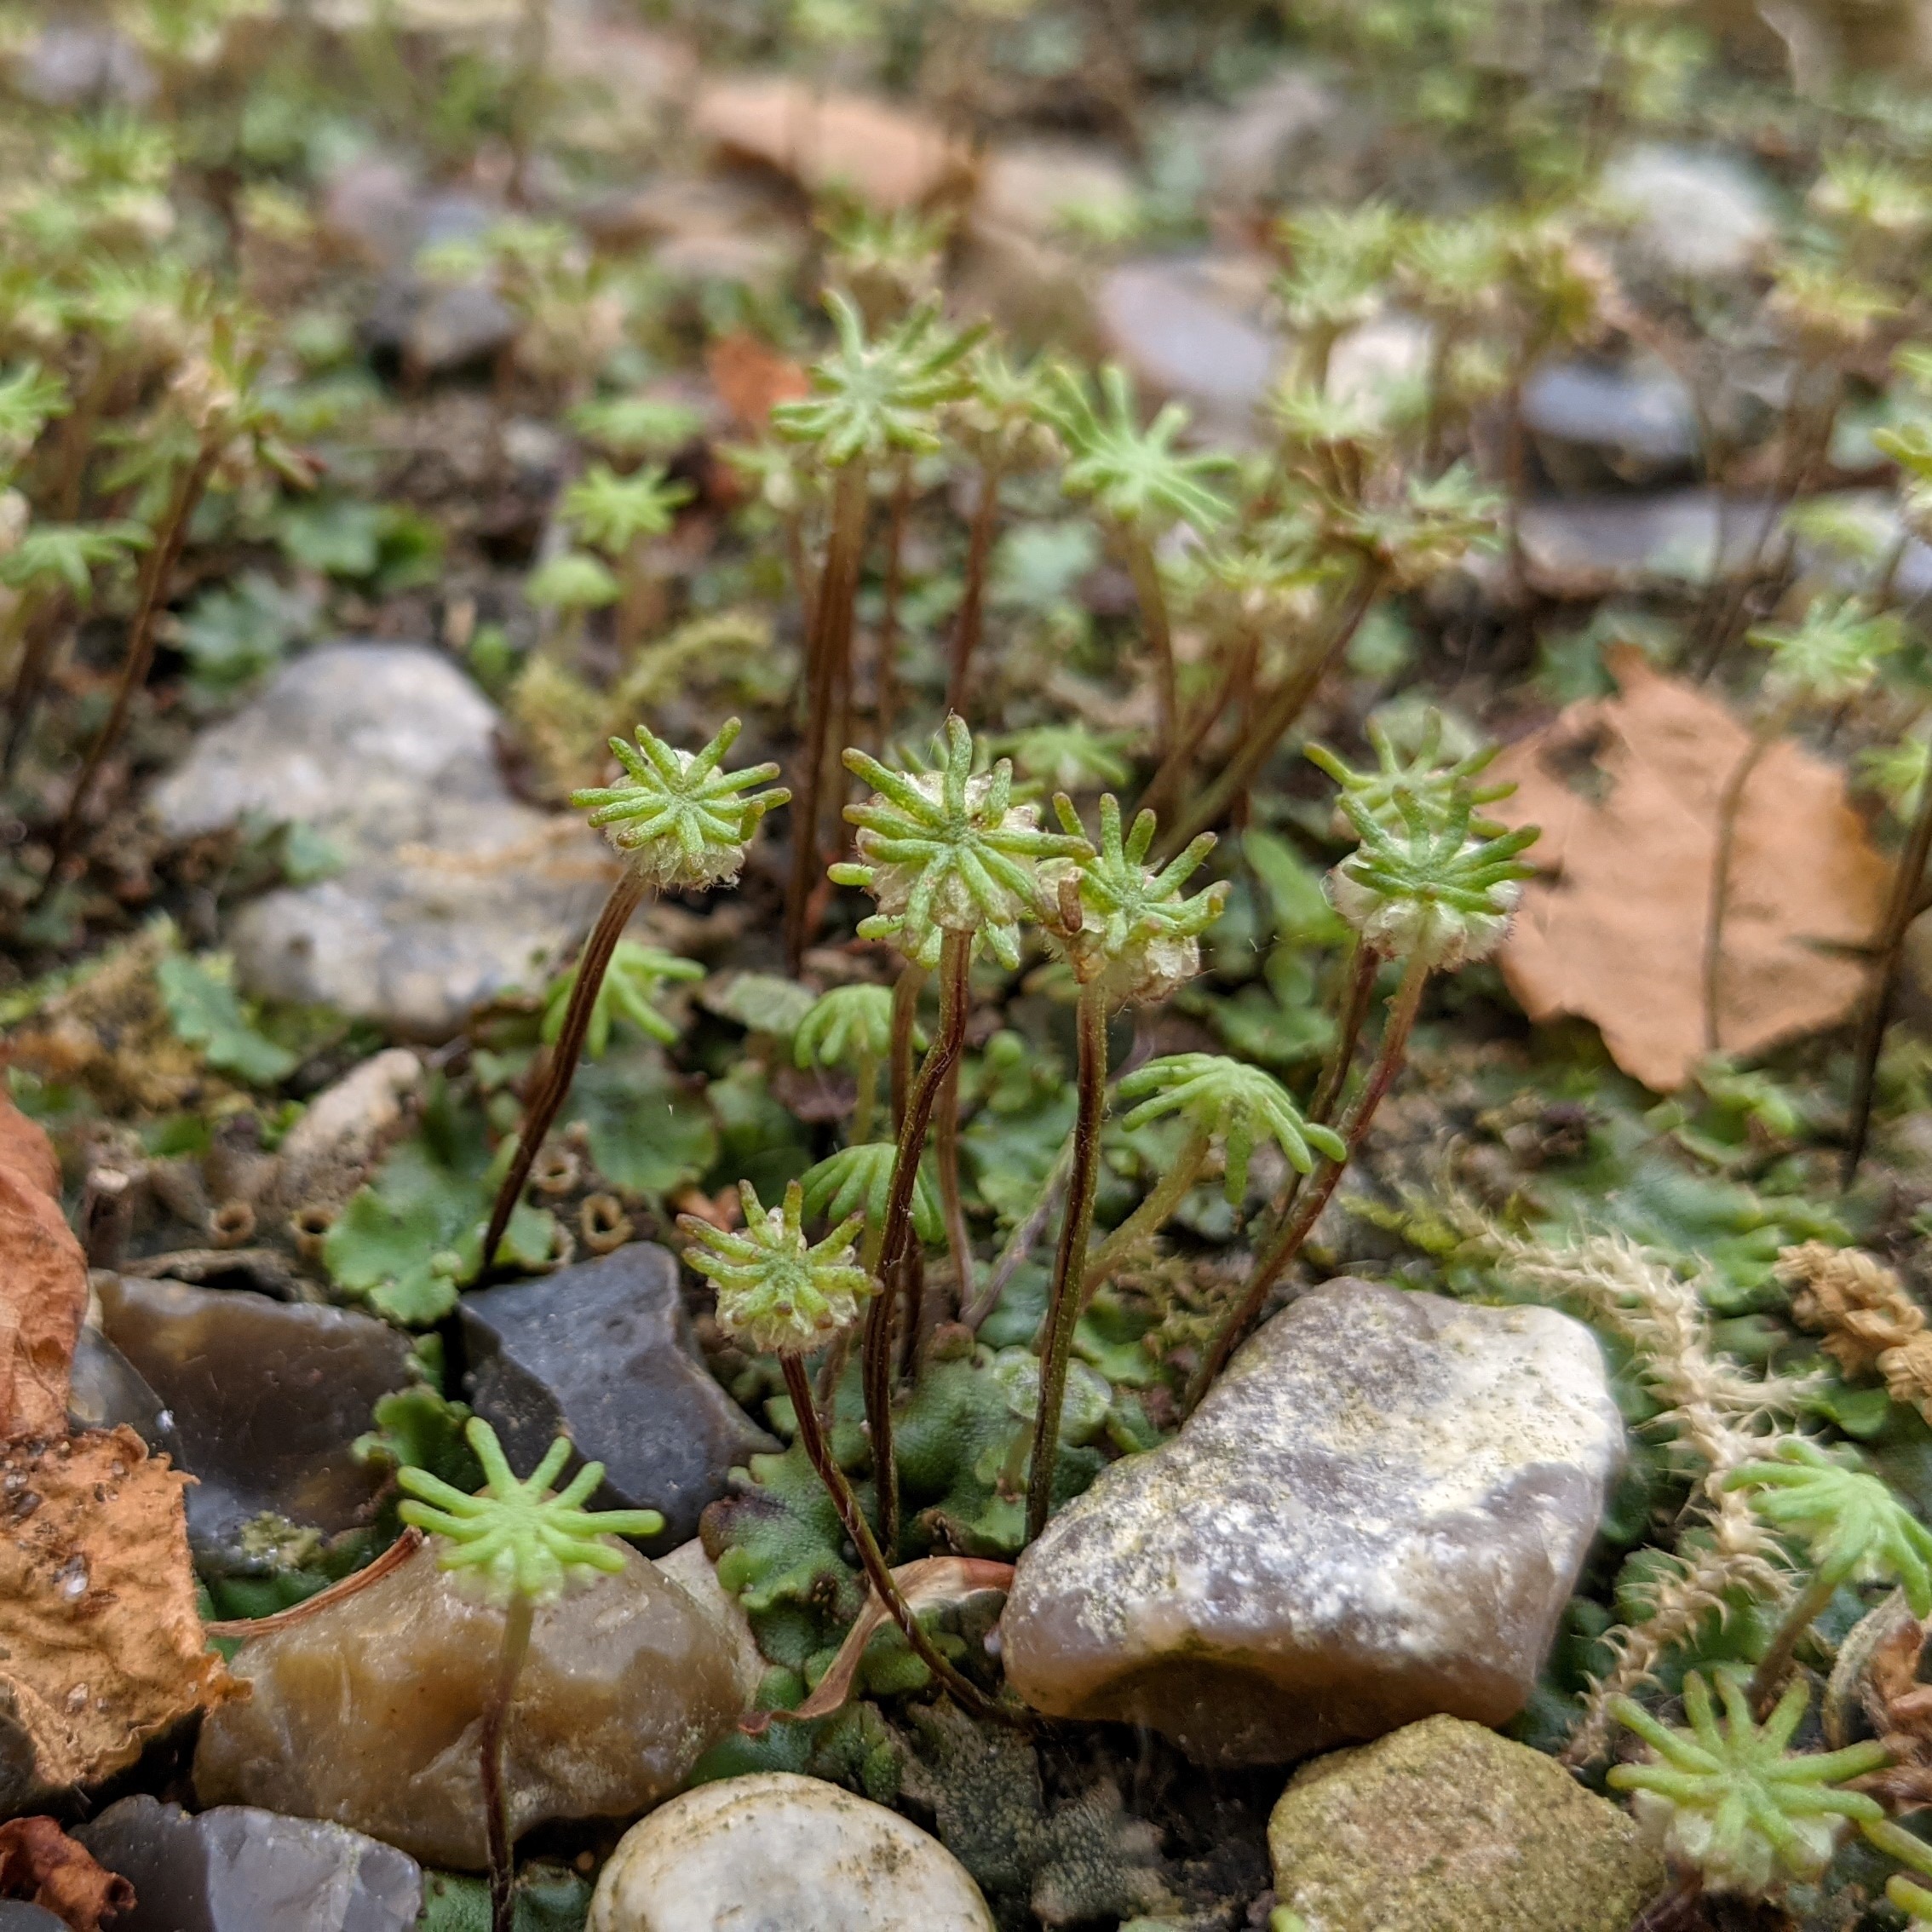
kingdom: Plantae
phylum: Marchantiophyta
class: Marchantiopsida
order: Marchantiales
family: Marchantiaceae
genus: Marchantia
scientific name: Marchantia polymorpha
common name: Almindelig lungemos (underart)
